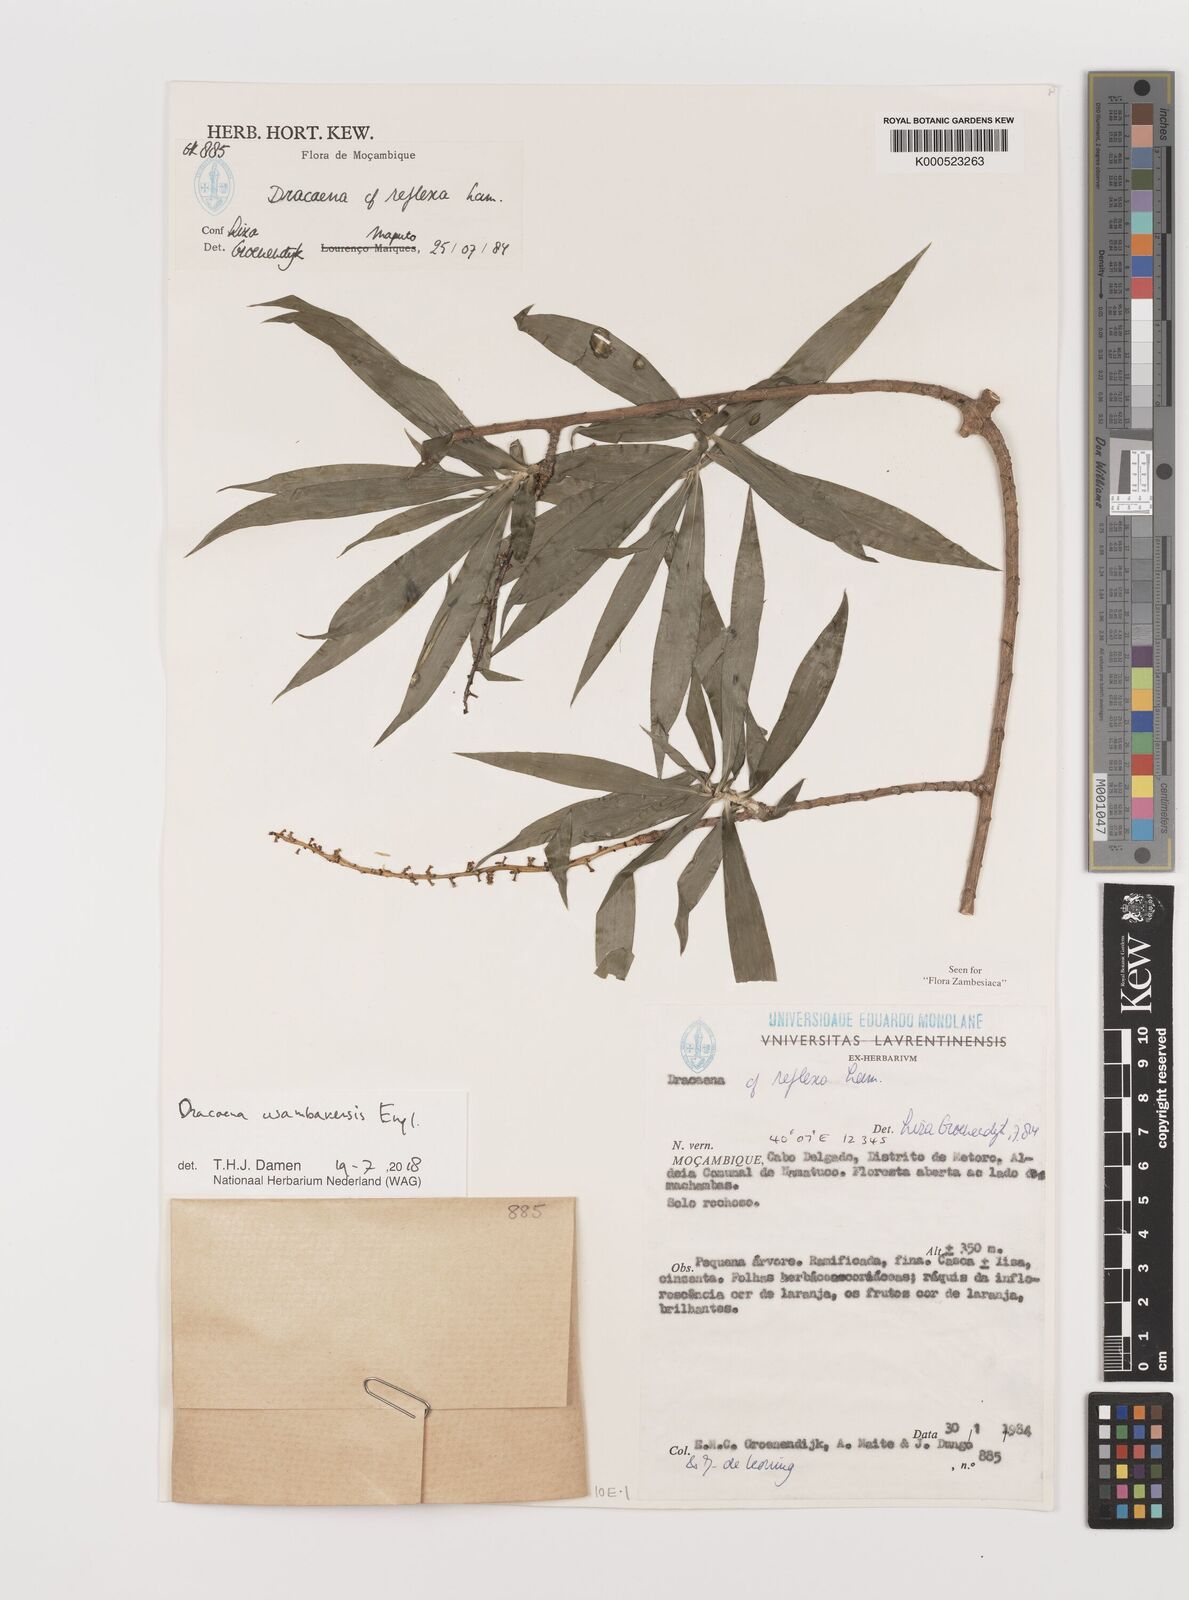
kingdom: Plantae
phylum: Tracheophyta
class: Liliopsida
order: Asparagales
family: Asparagaceae
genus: Dracaena
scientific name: Dracaena usambarensis
